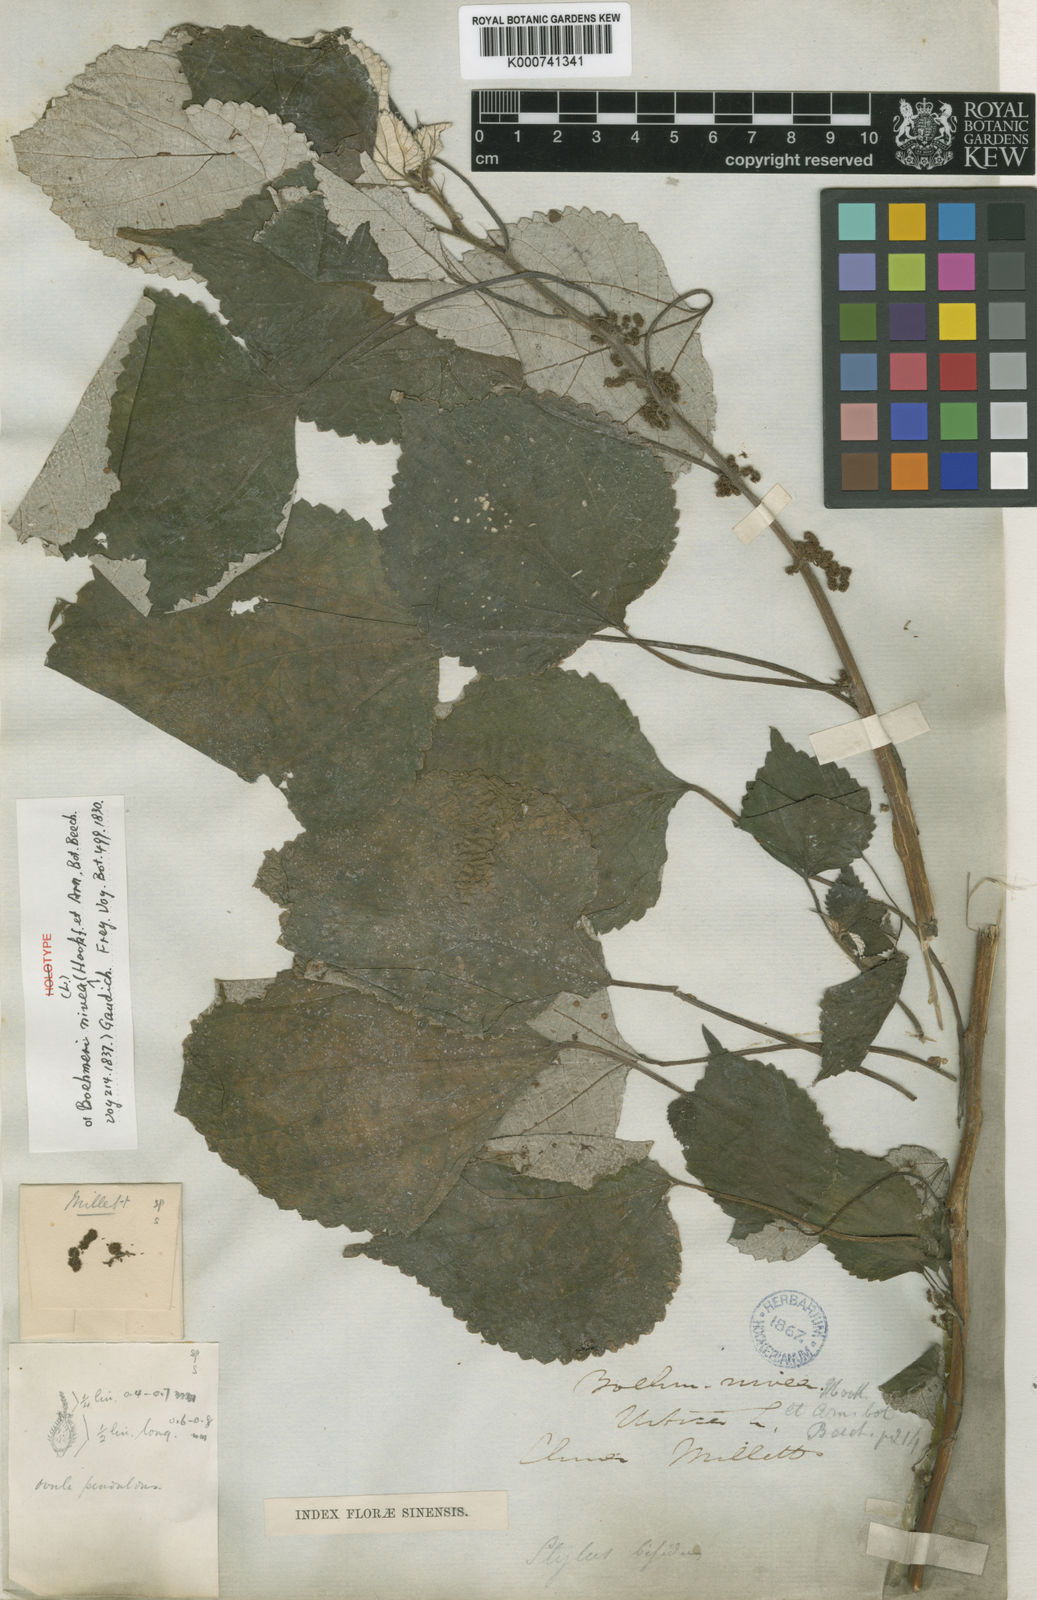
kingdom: Plantae
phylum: Tracheophyta
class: Magnoliopsida
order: Rosales
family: Urticaceae
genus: Boehmeria
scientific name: Boehmeria nivea
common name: Ramie chinese grass
